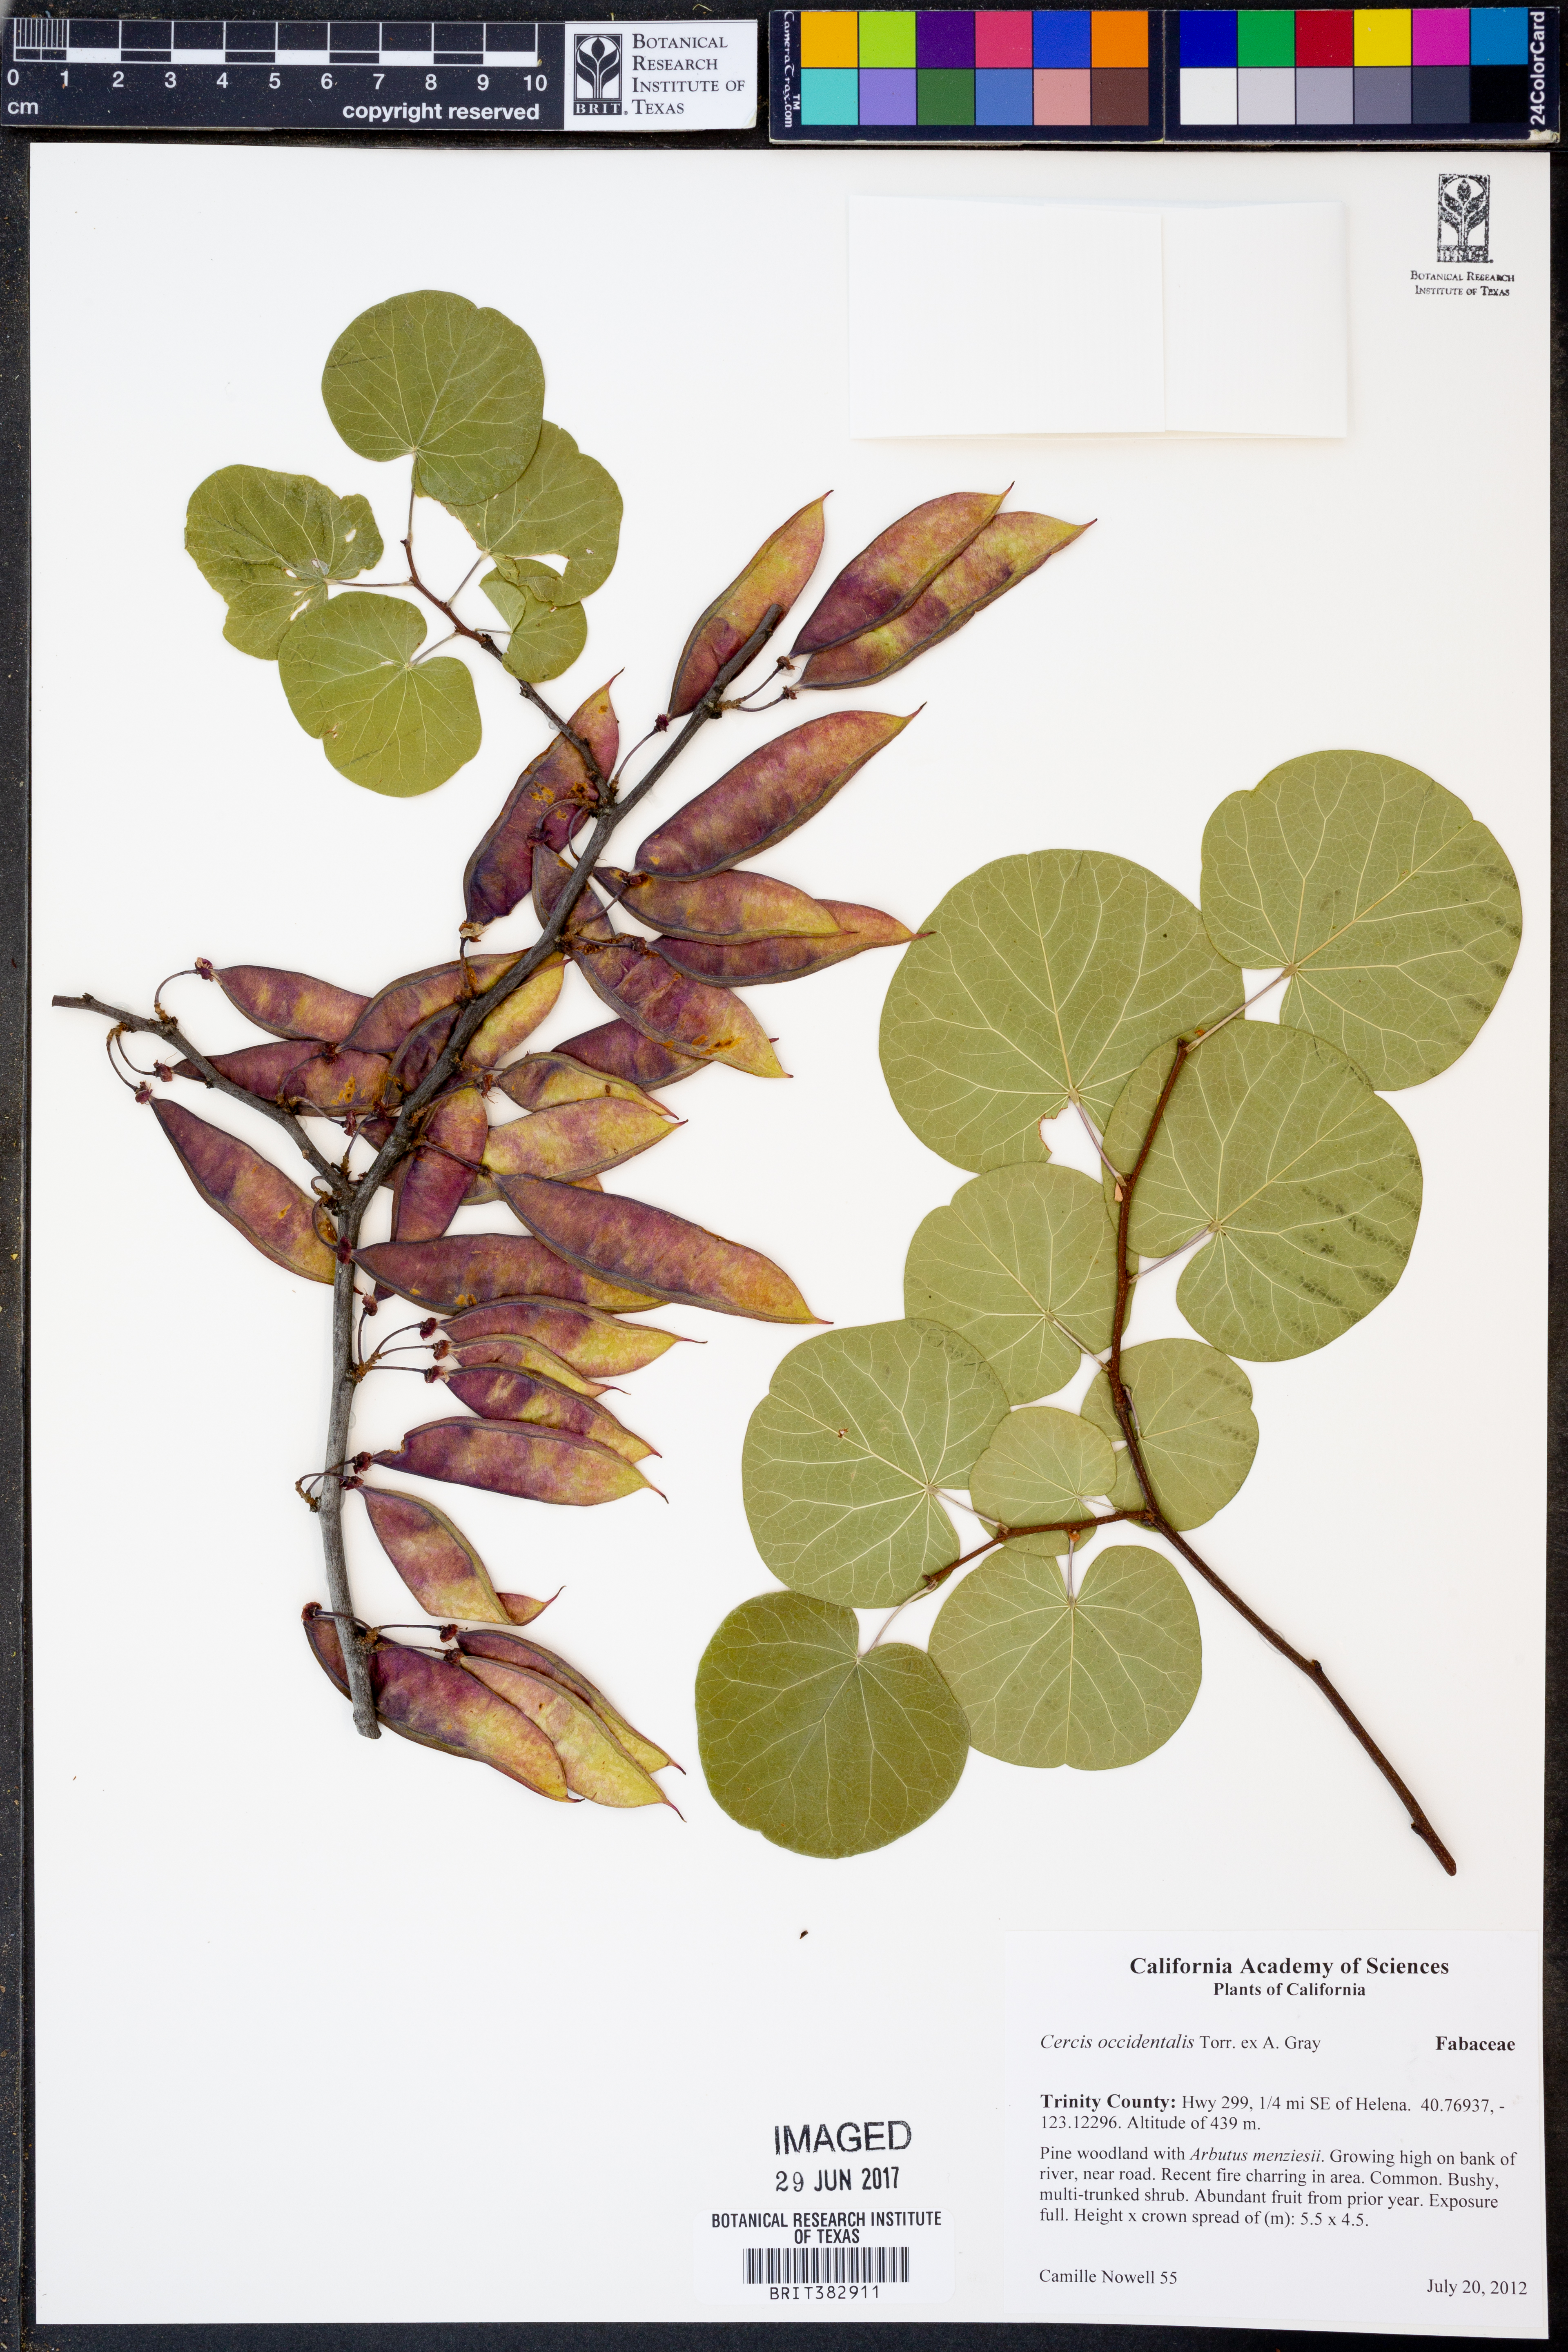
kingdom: Plantae
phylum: Tracheophyta
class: Magnoliopsida
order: Fabales
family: Fabaceae
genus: Cercis
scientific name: Cercis occidentalis
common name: California redbud
